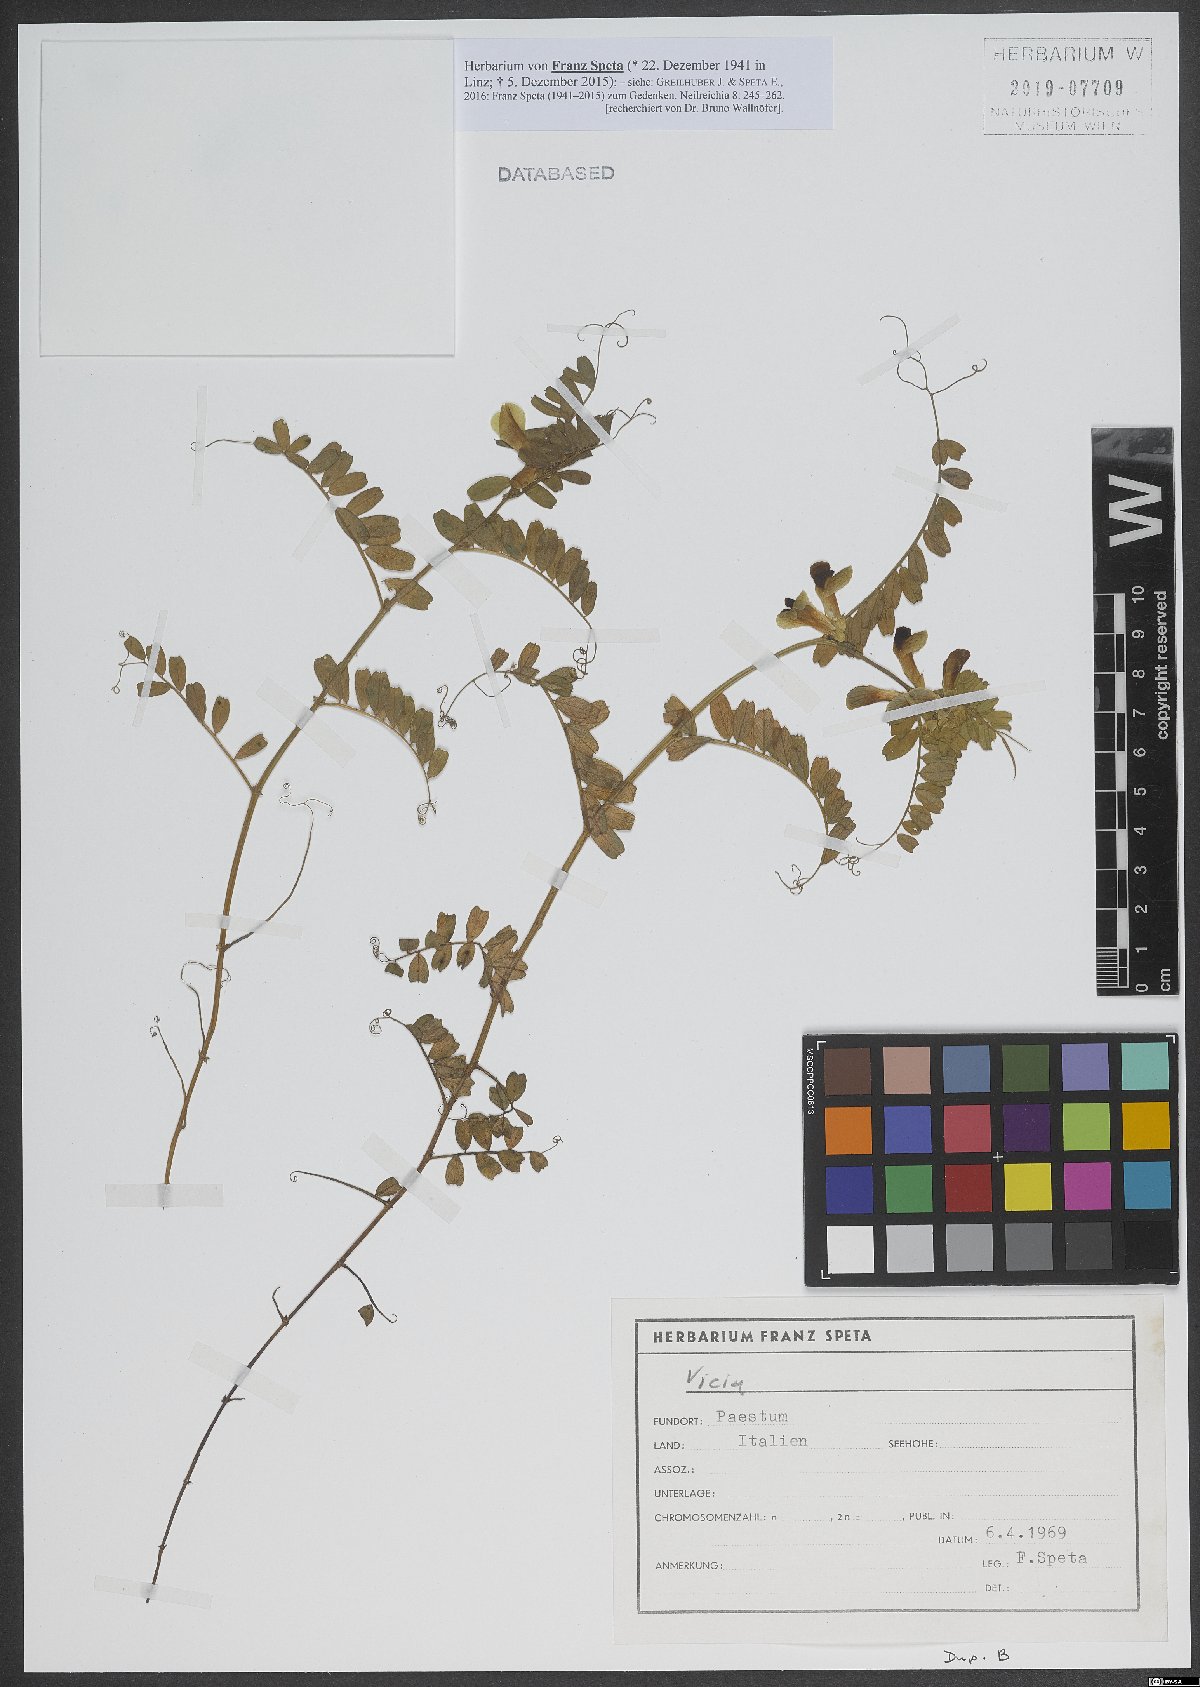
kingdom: Plantae
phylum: Tracheophyta
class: Magnoliopsida
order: Fabales
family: Fabaceae
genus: Vicia
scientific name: Vicia
